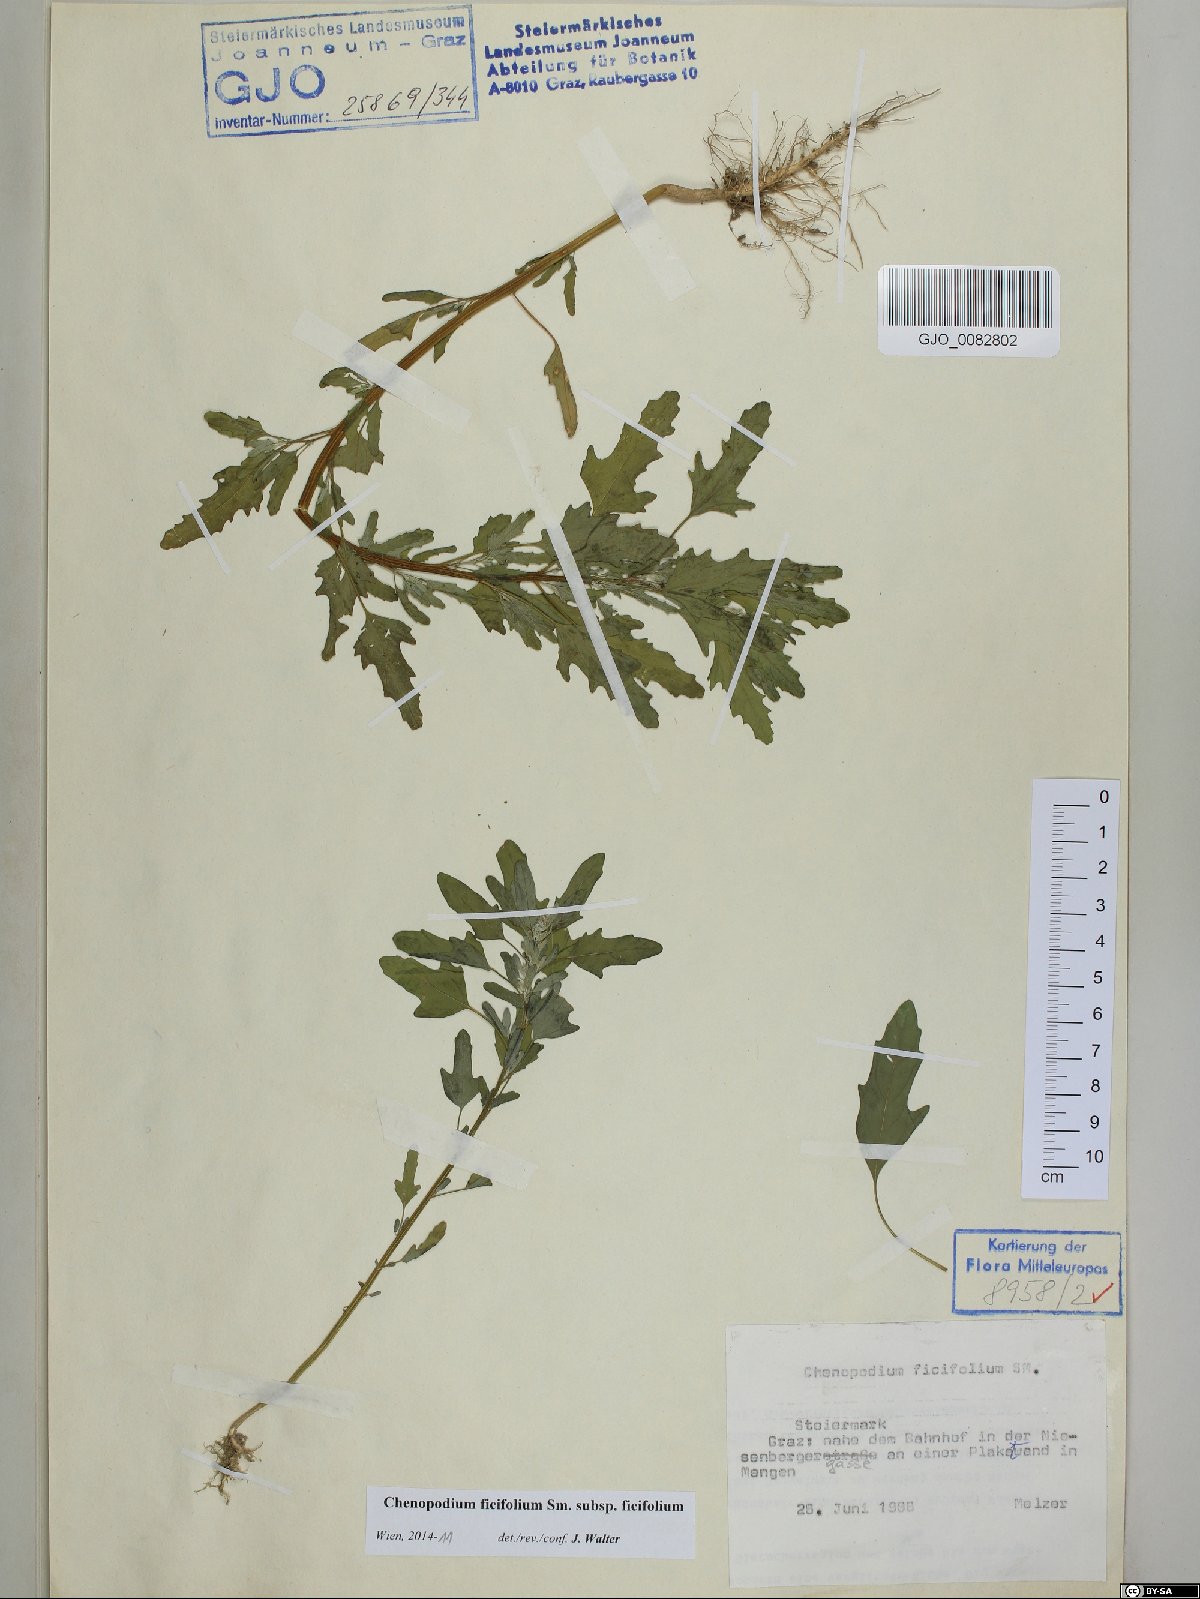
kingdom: Plantae
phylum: Tracheophyta
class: Magnoliopsida
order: Caryophyllales
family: Amaranthaceae
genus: Chenopodium
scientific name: Chenopodium ficifolium
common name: Fig-leaved goosefoot
